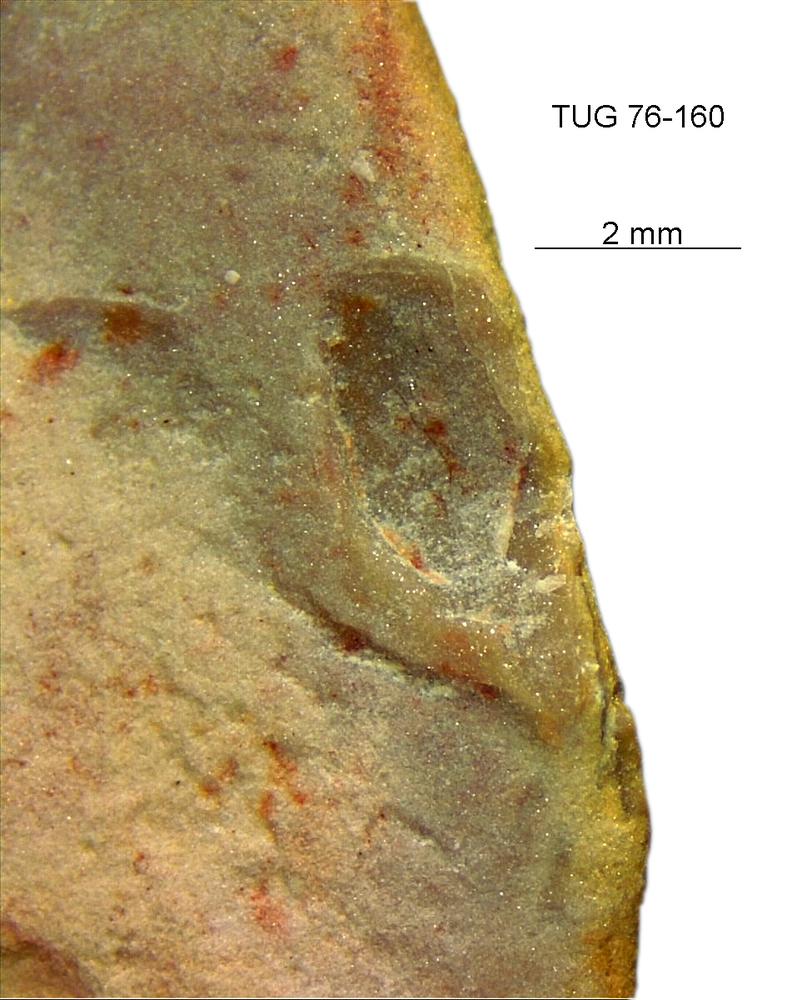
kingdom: Animalia
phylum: Brachiopoda
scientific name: Brachiopoda
